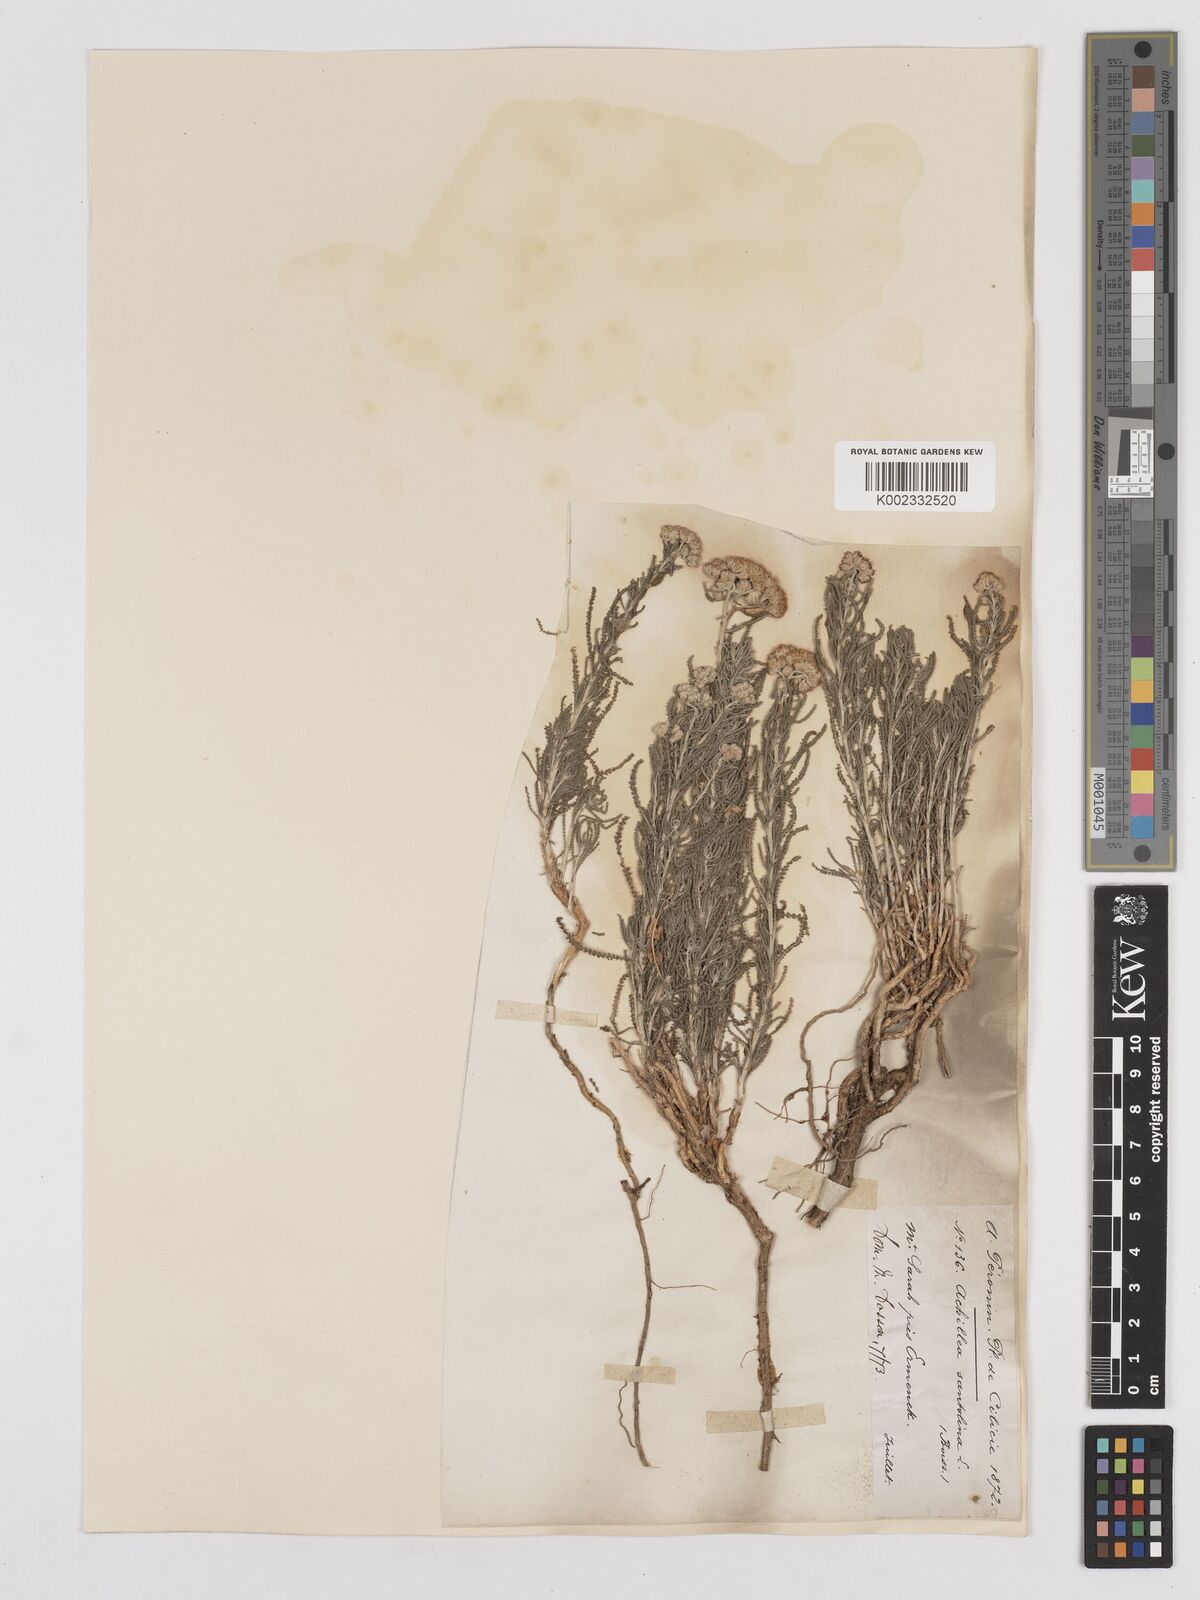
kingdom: Plantae
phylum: Tracheophyta
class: Magnoliopsida
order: Asterales
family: Asteraceae
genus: Achillea
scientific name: Achillea tenuifolia
